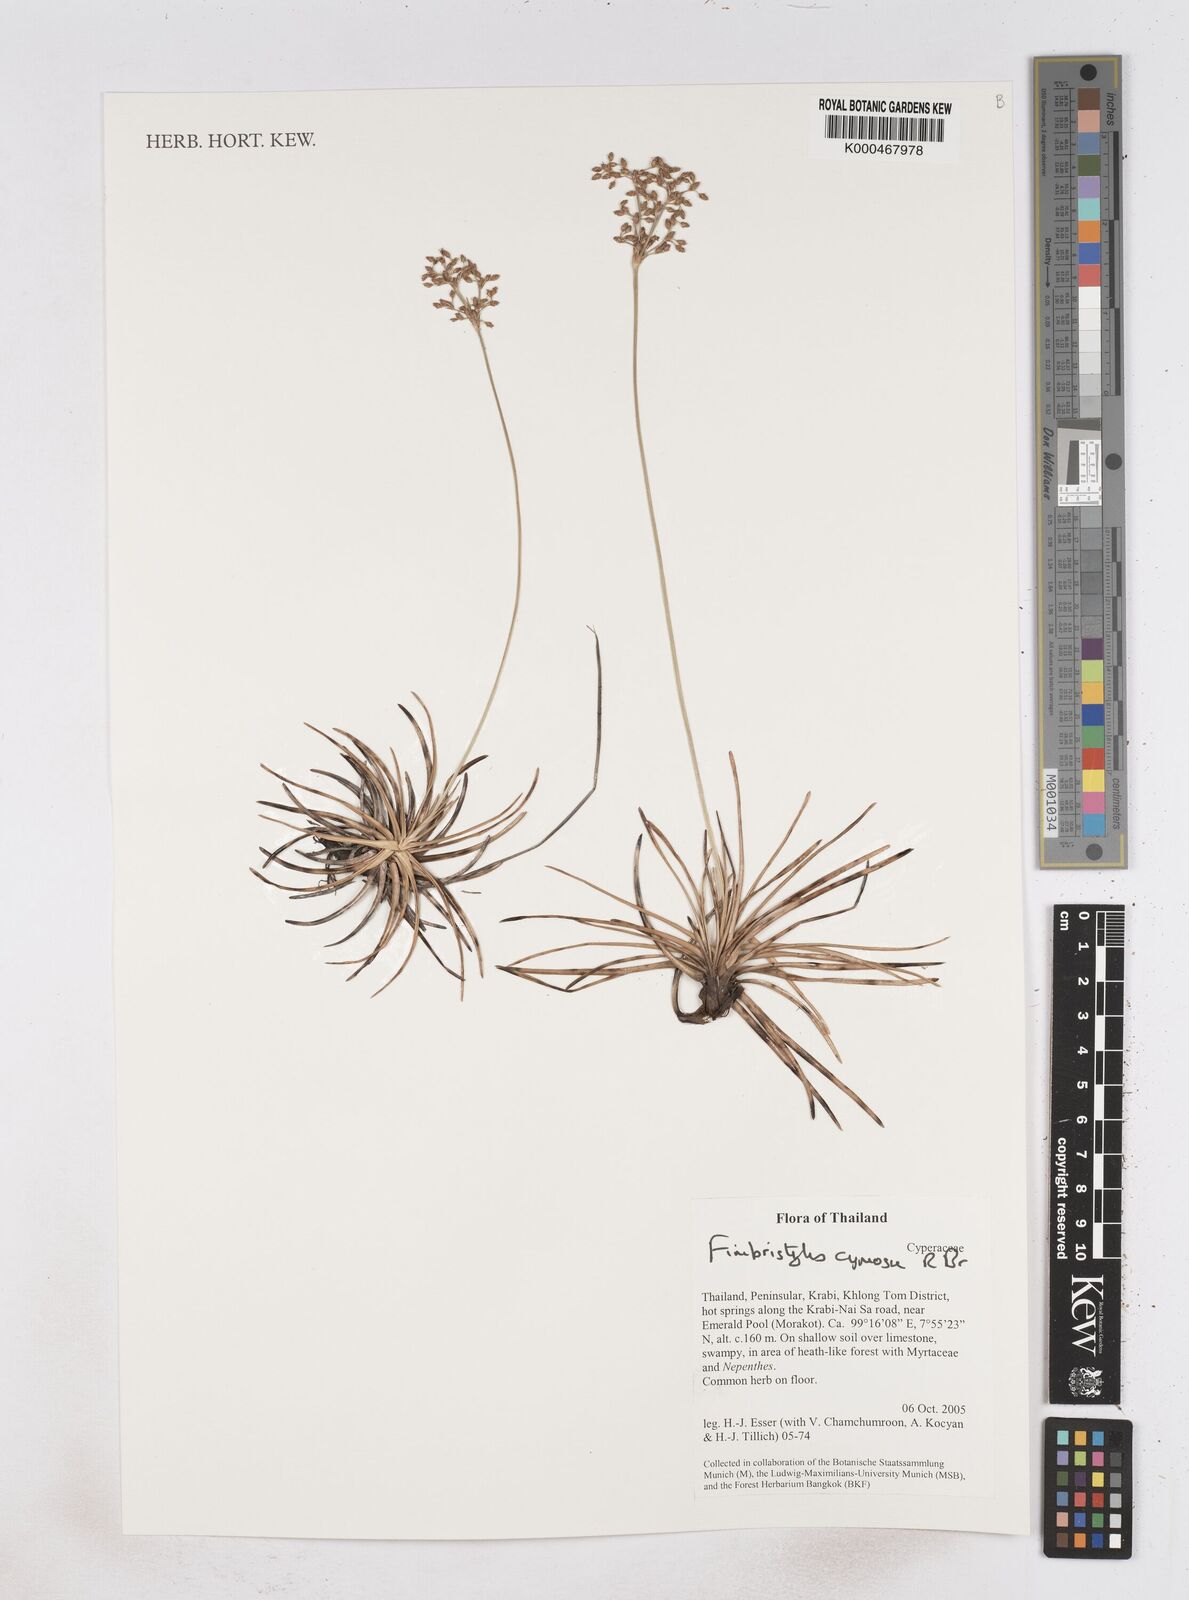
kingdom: Plantae
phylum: Tracheophyta
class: Liliopsida
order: Poales
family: Cyperaceae
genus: Fimbristylis
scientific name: Fimbristylis cymosa
